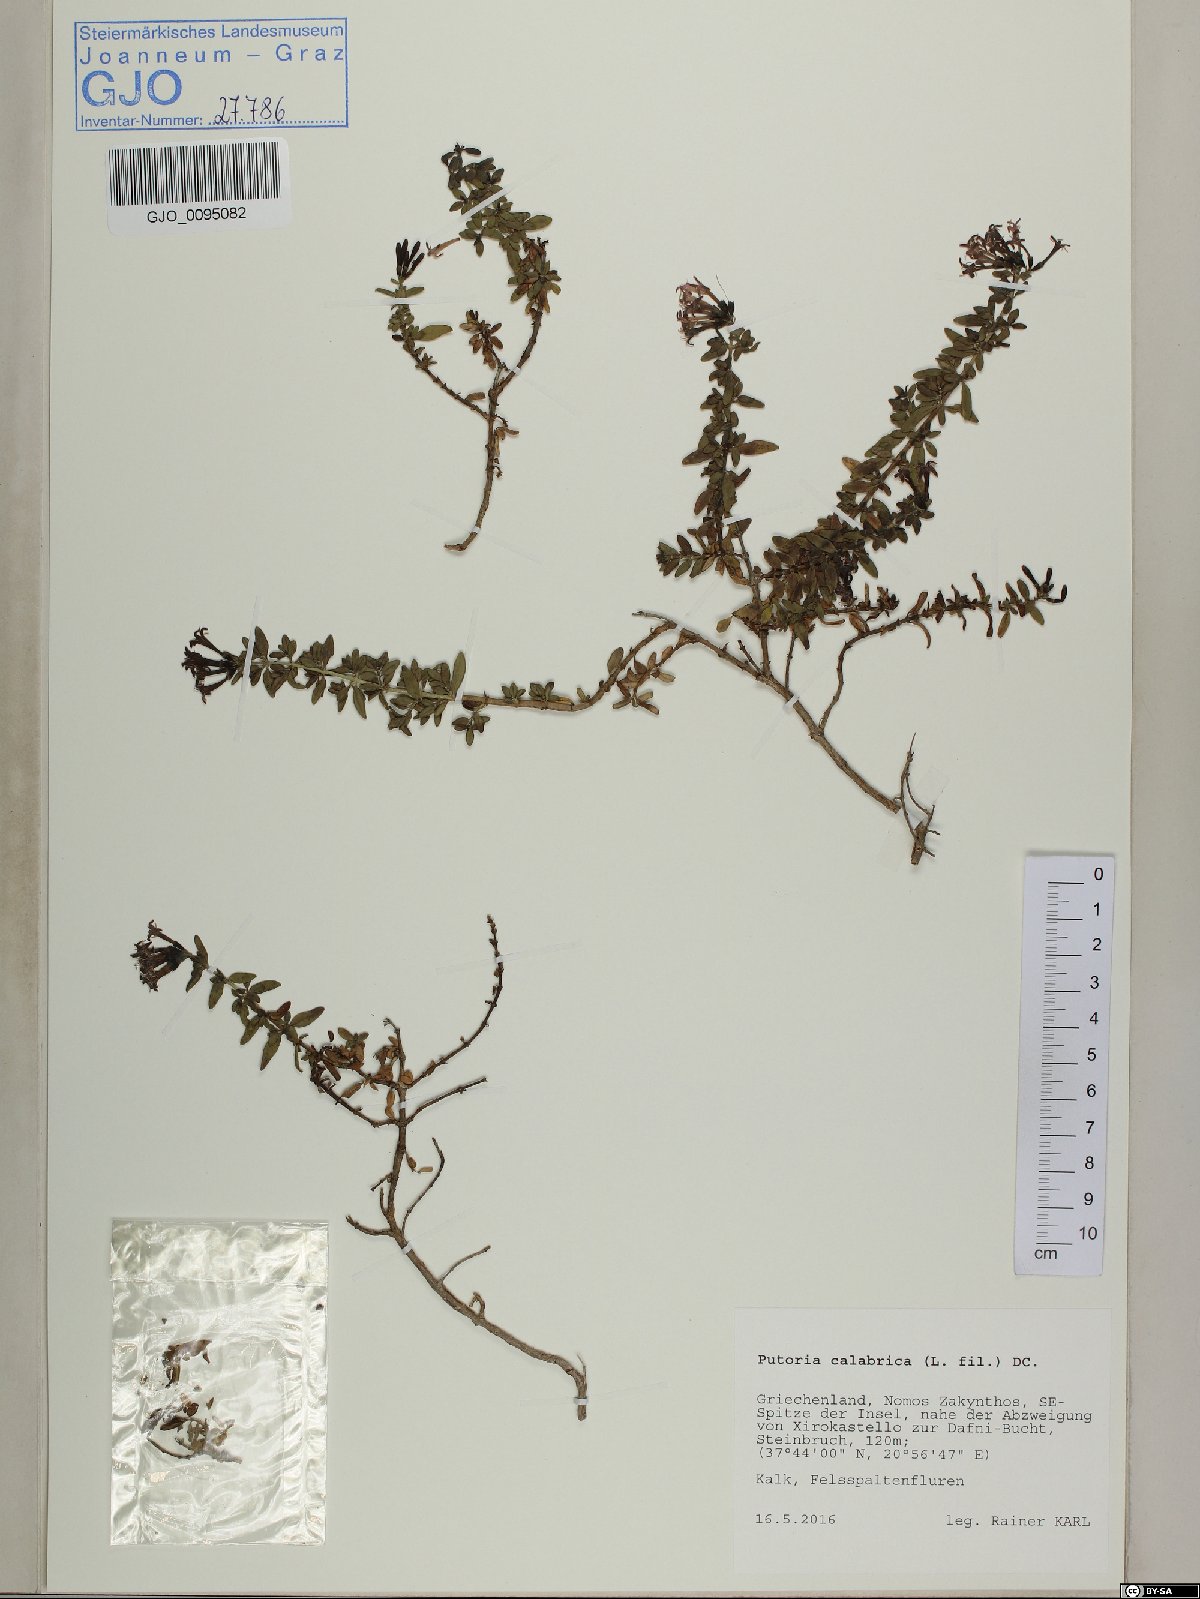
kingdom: Plantae
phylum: Tracheophyta
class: Magnoliopsida
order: Gentianales
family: Rubiaceae
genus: Plocama
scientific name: Plocama calabrica
